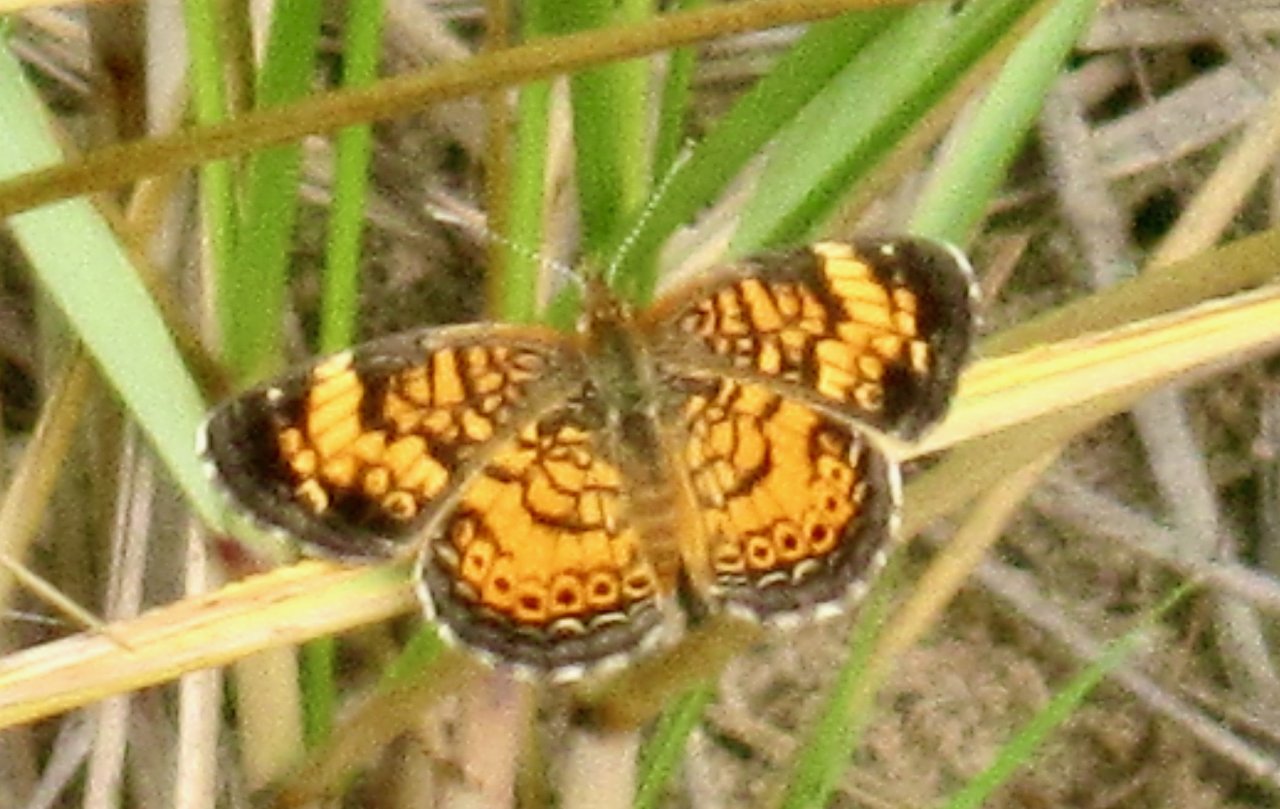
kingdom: Animalia
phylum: Arthropoda
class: Insecta
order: Lepidoptera
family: Nymphalidae
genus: Phyciodes
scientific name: Phyciodes tharos
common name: Pearl Crescent
